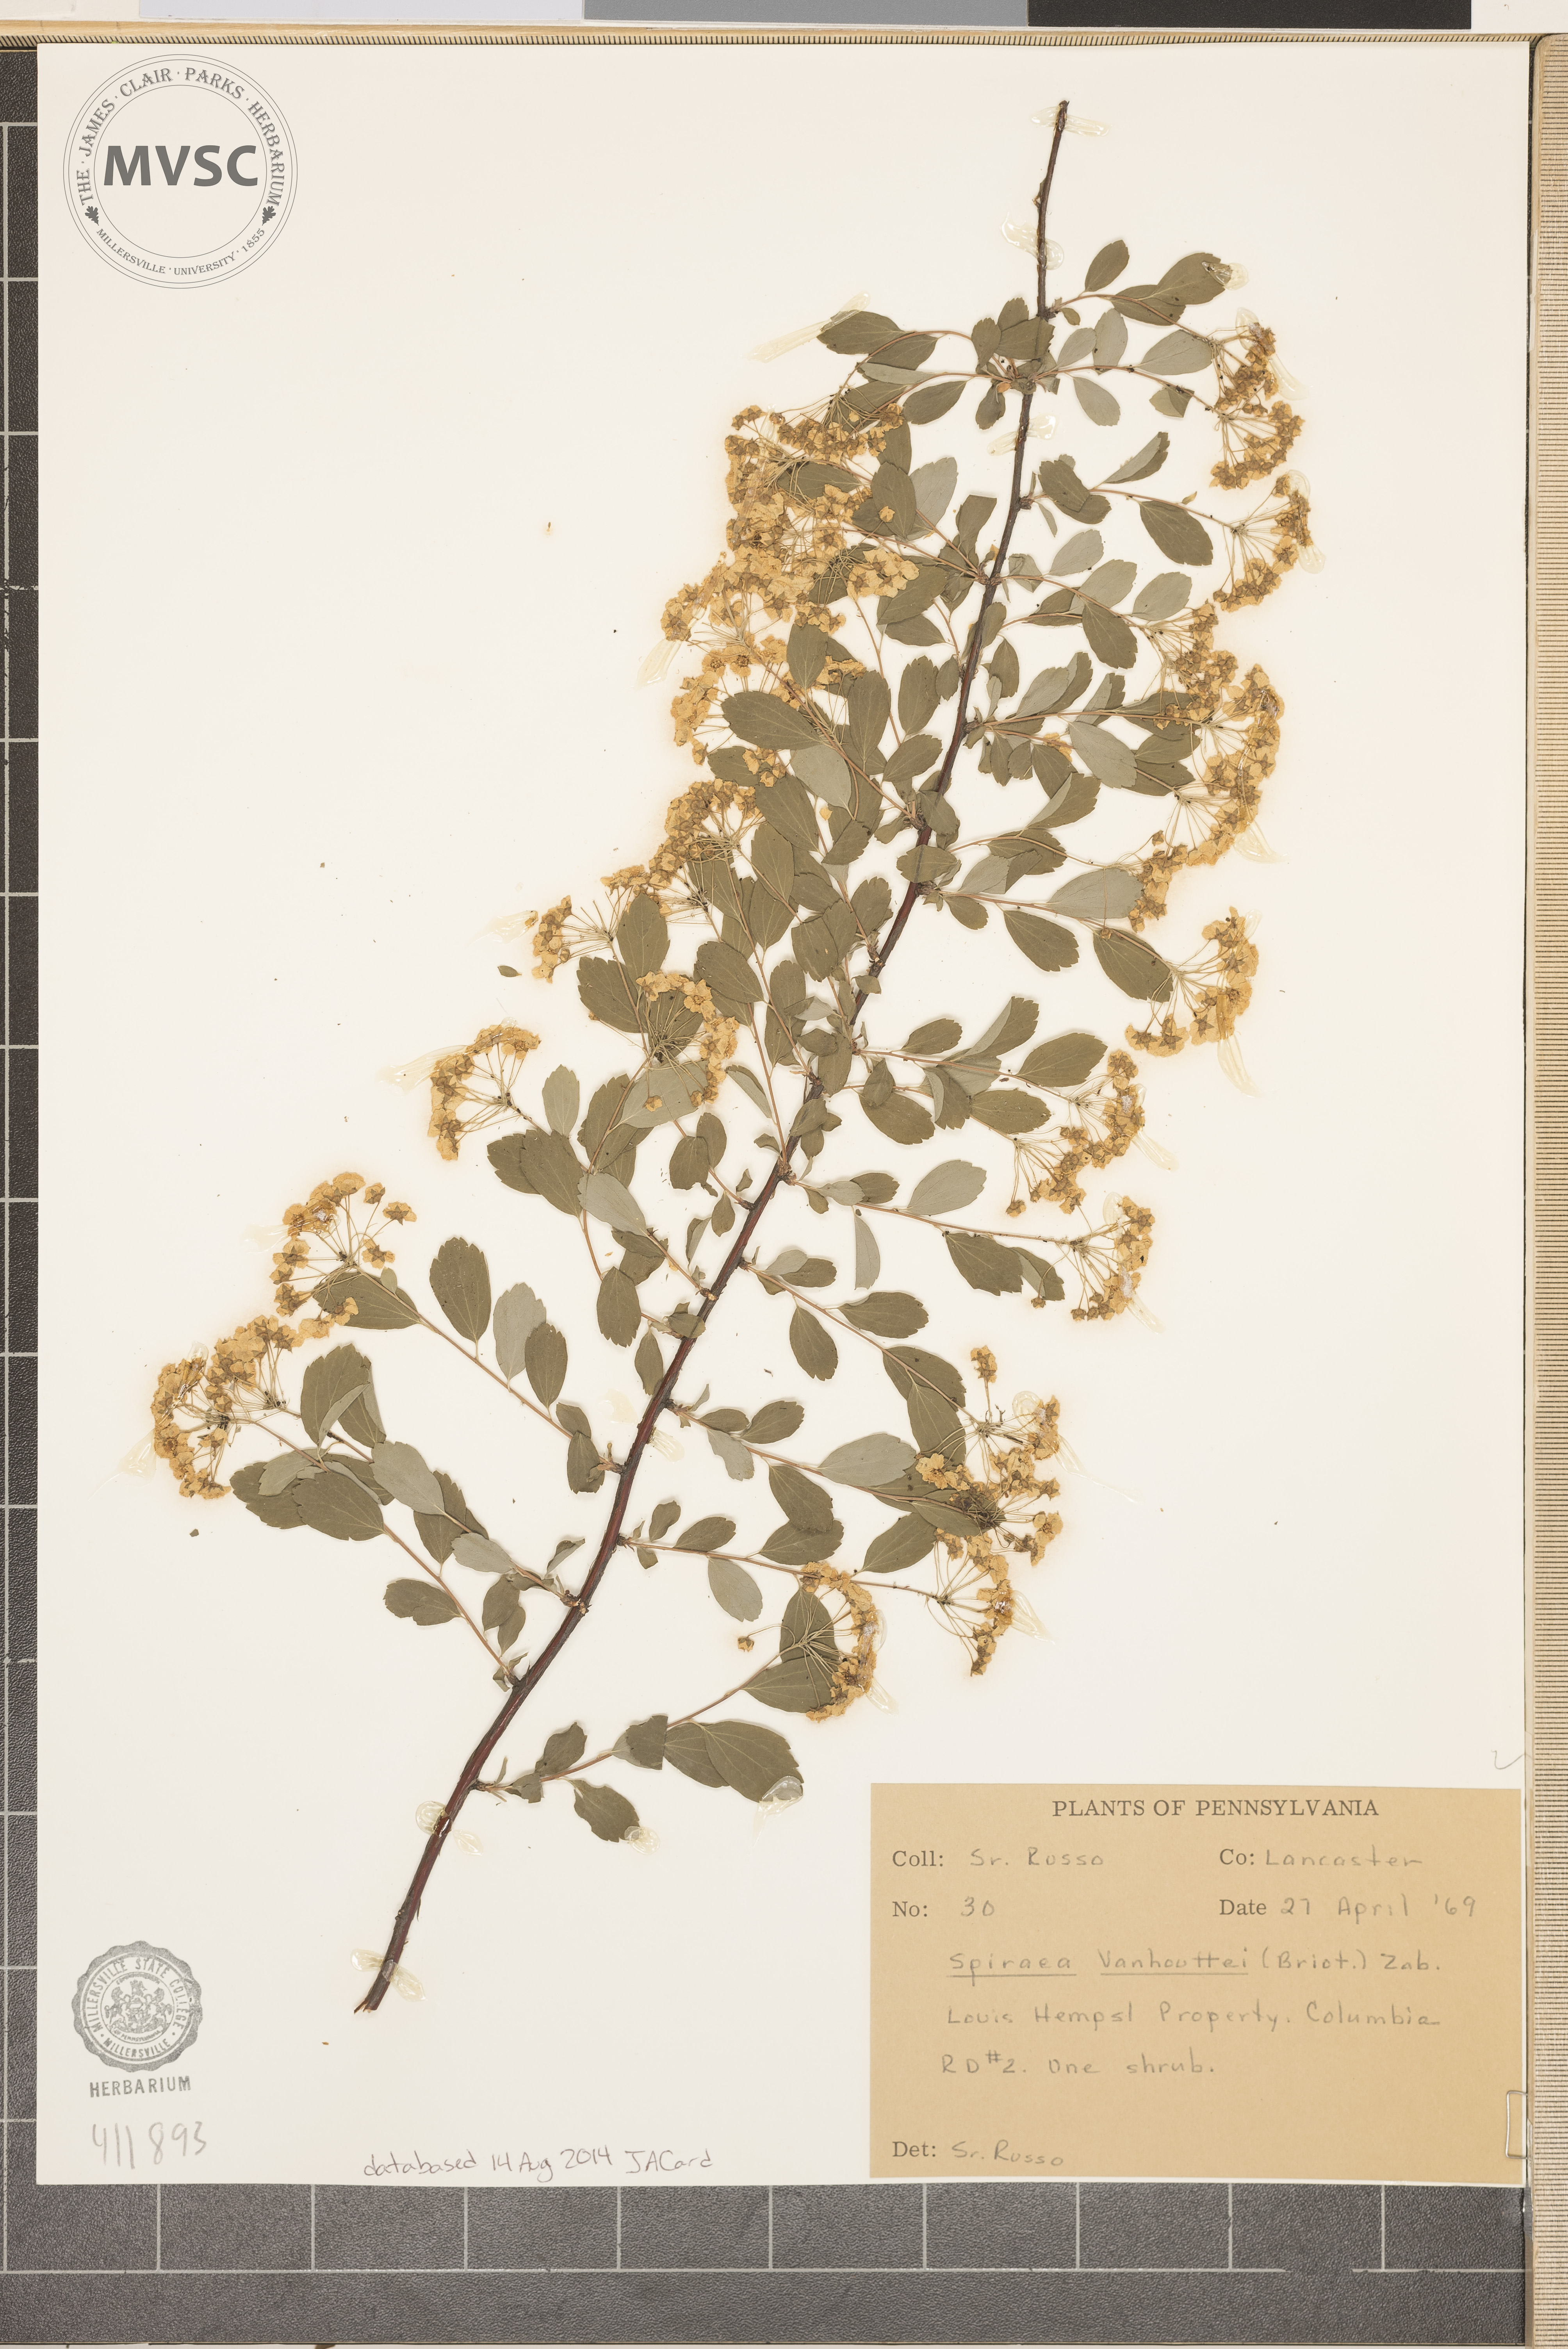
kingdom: Plantae
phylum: Tracheophyta
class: Magnoliopsida
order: Rosales
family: Rosaceae
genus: Spiraea
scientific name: Spiraea vanhouttei
